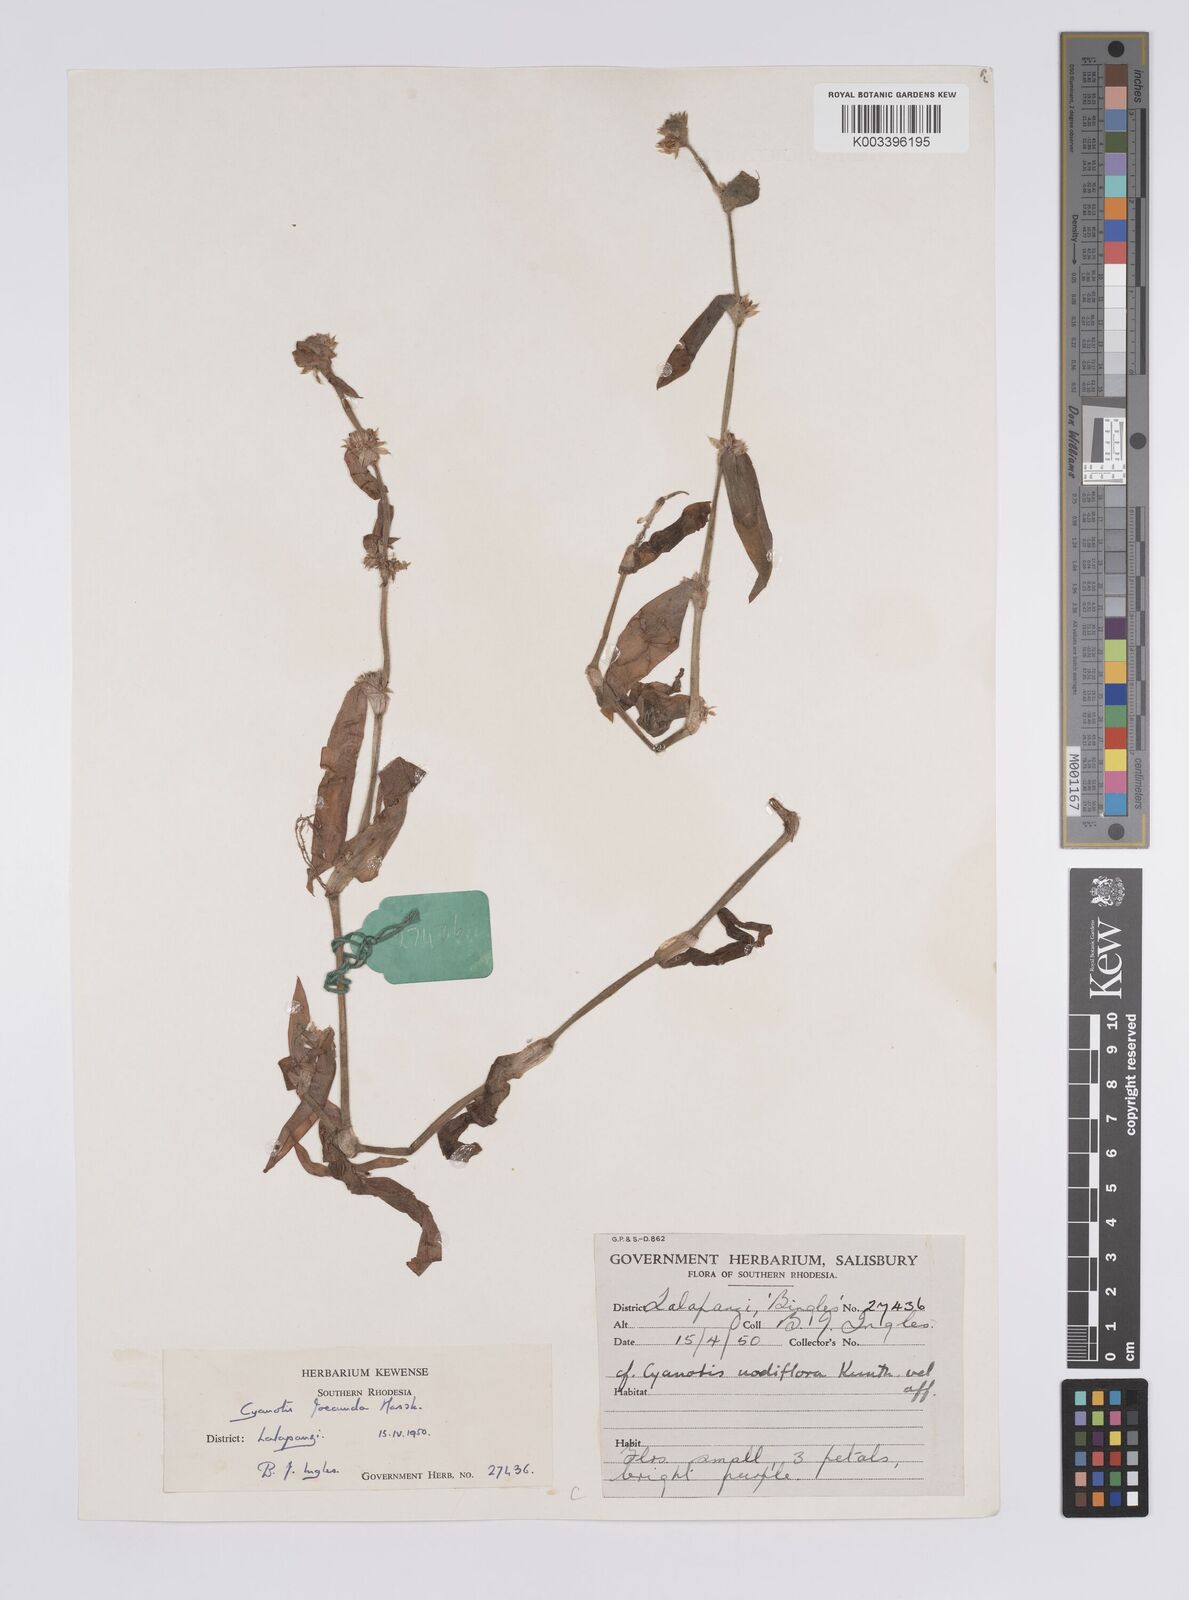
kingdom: Plantae
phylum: Tracheophyta
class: Liliopsida
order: Commelinales
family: Commelinaceae
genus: Cyanotis
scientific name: Cyanotis foecunda
